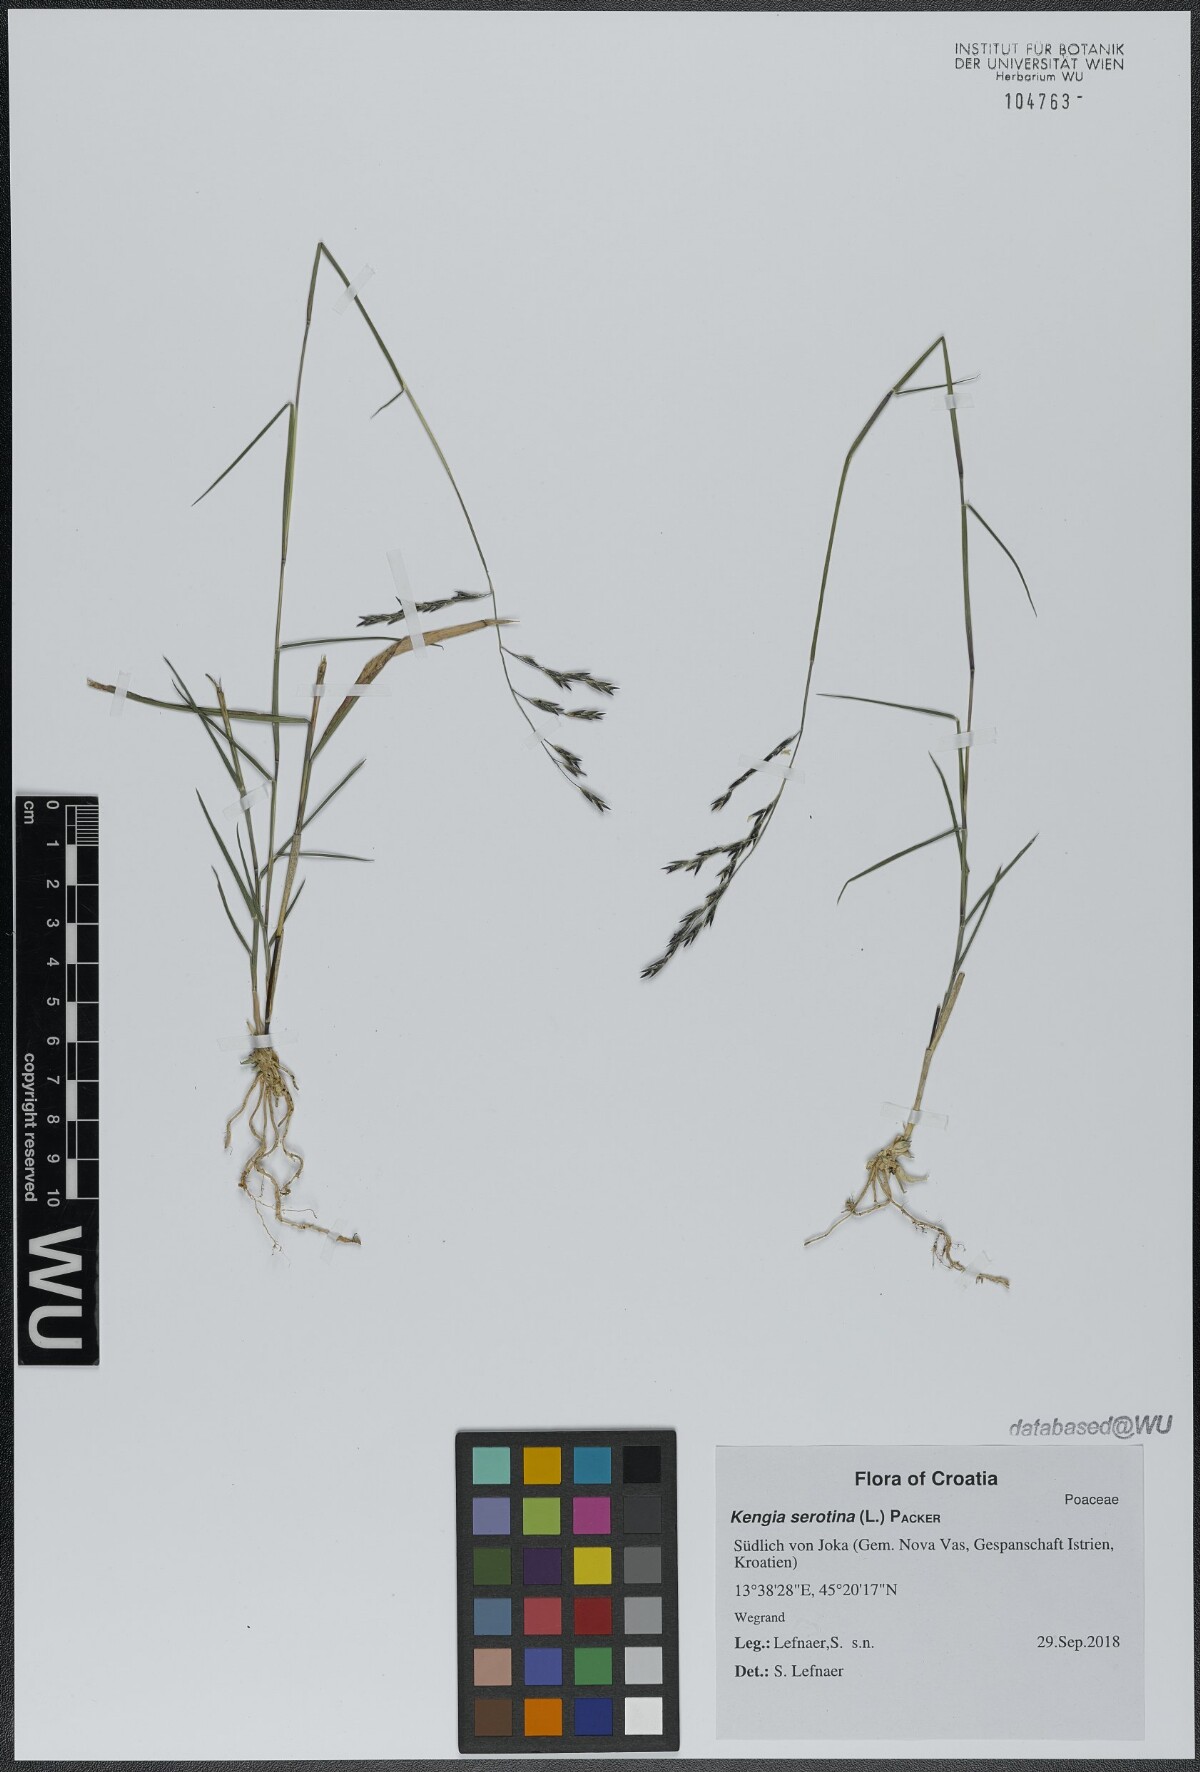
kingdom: Plantae
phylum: Tracheophyta
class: Liliopsida
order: Poales
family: Poaceae
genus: Cleistogenes
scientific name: Cleistogenes serotina
